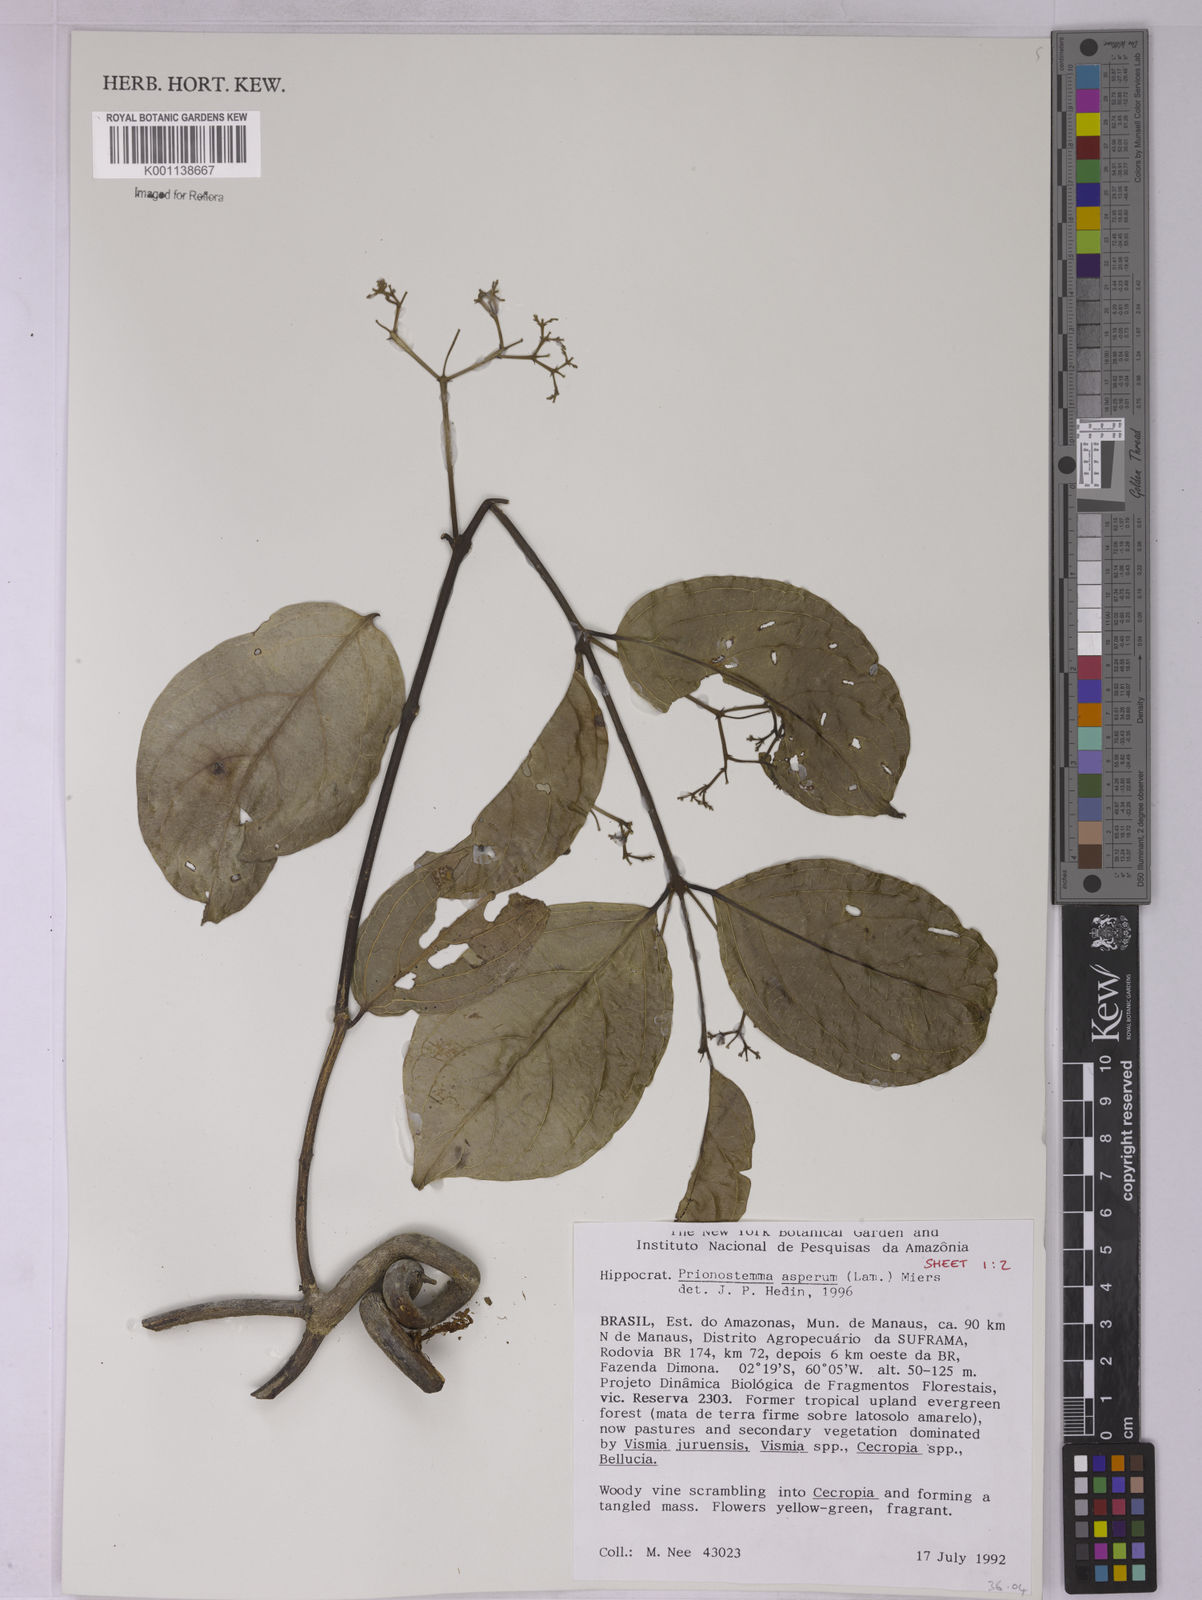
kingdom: Plantae
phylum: Tracheophyta
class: Magnoliopsida
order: Celastrales
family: Celastraceae
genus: Prionostemma
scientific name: Prionostemma aspera
